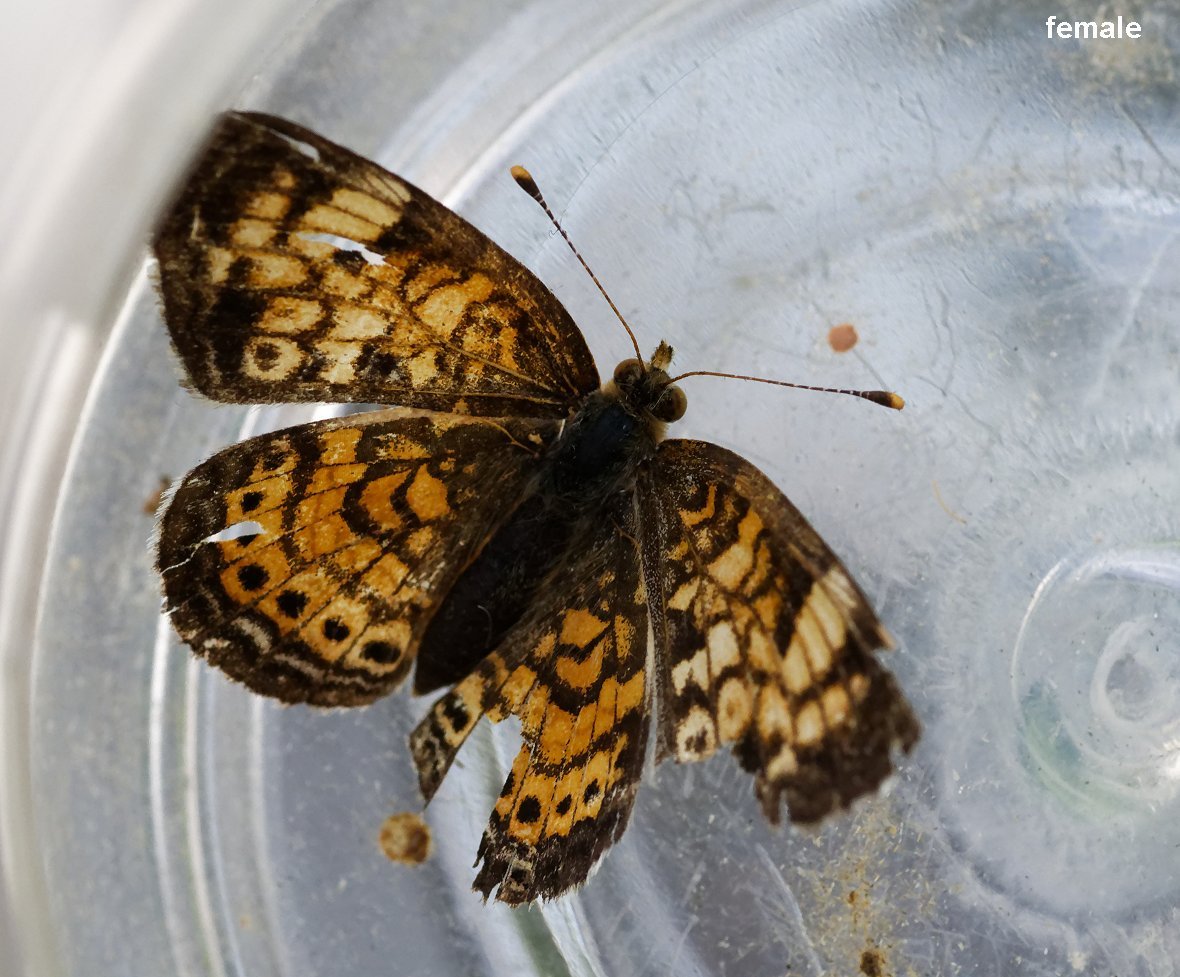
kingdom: Animalia
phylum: Arthropoda
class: Insecta
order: Lepidoptera
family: Nymphalidae
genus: Phyciodes
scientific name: Phyciodes
